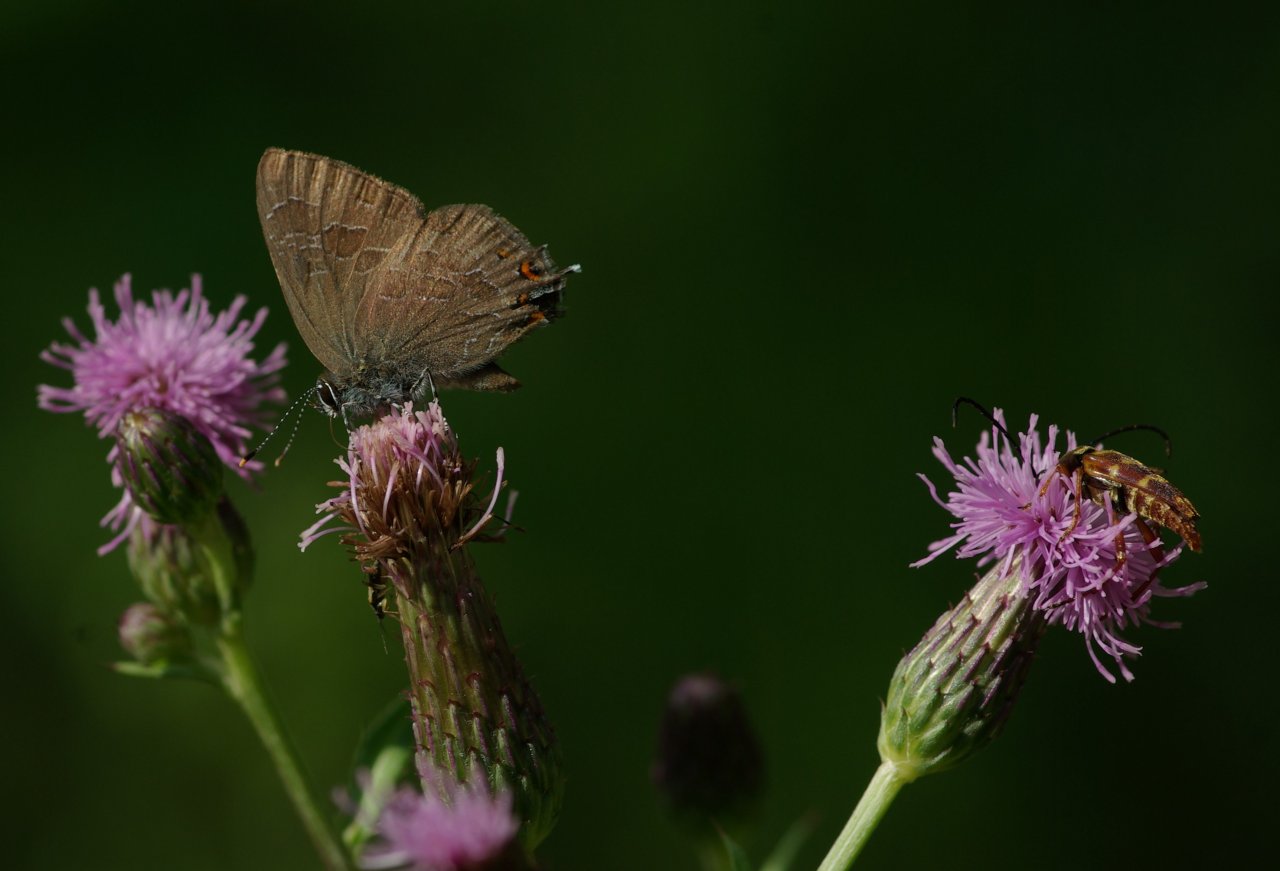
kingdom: Animalia
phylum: Arthropoda
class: Insecta
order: Lepidoptera
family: Lycaenidae
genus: Satyrium
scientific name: Satyrium liparops
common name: Striped Hairstreak
